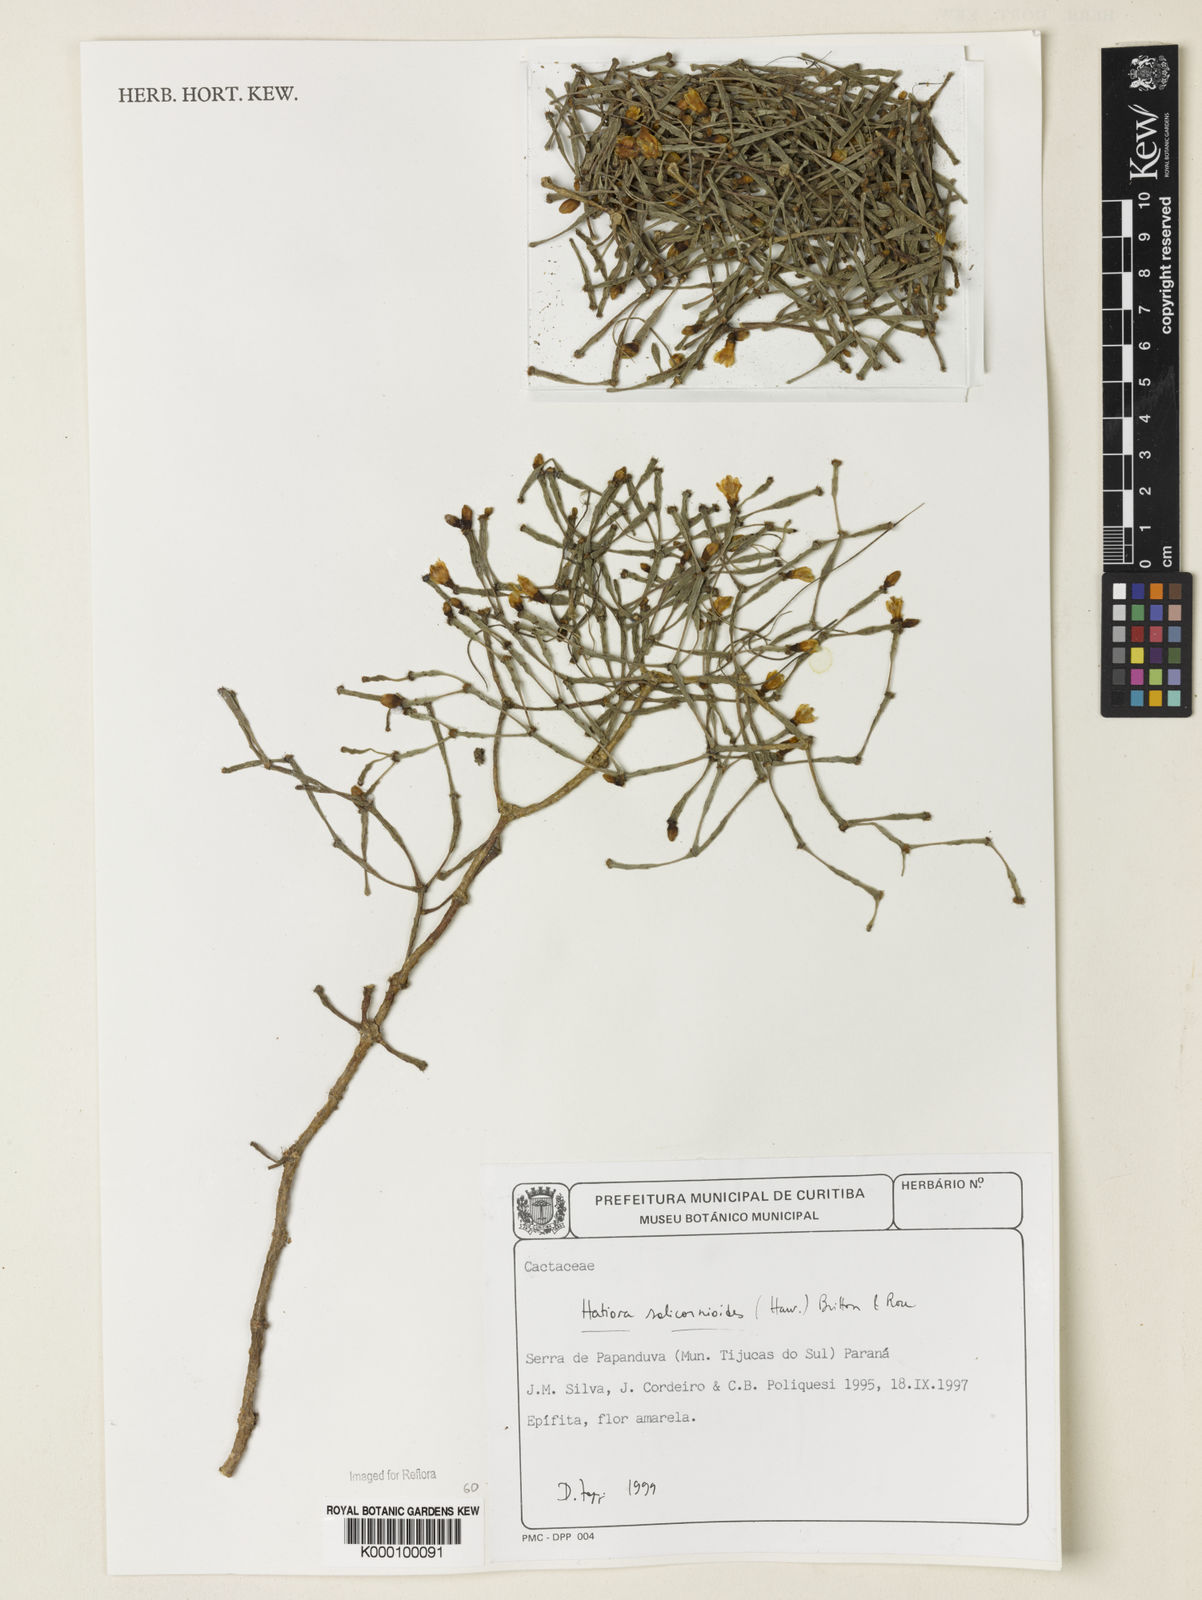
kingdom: Plantae
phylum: Tracheophyta
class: Magnoliopsida
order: Caryophyllales
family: Cactaceae
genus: Hatiora
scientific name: Hatiora salicornioides
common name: Dancing-bones
